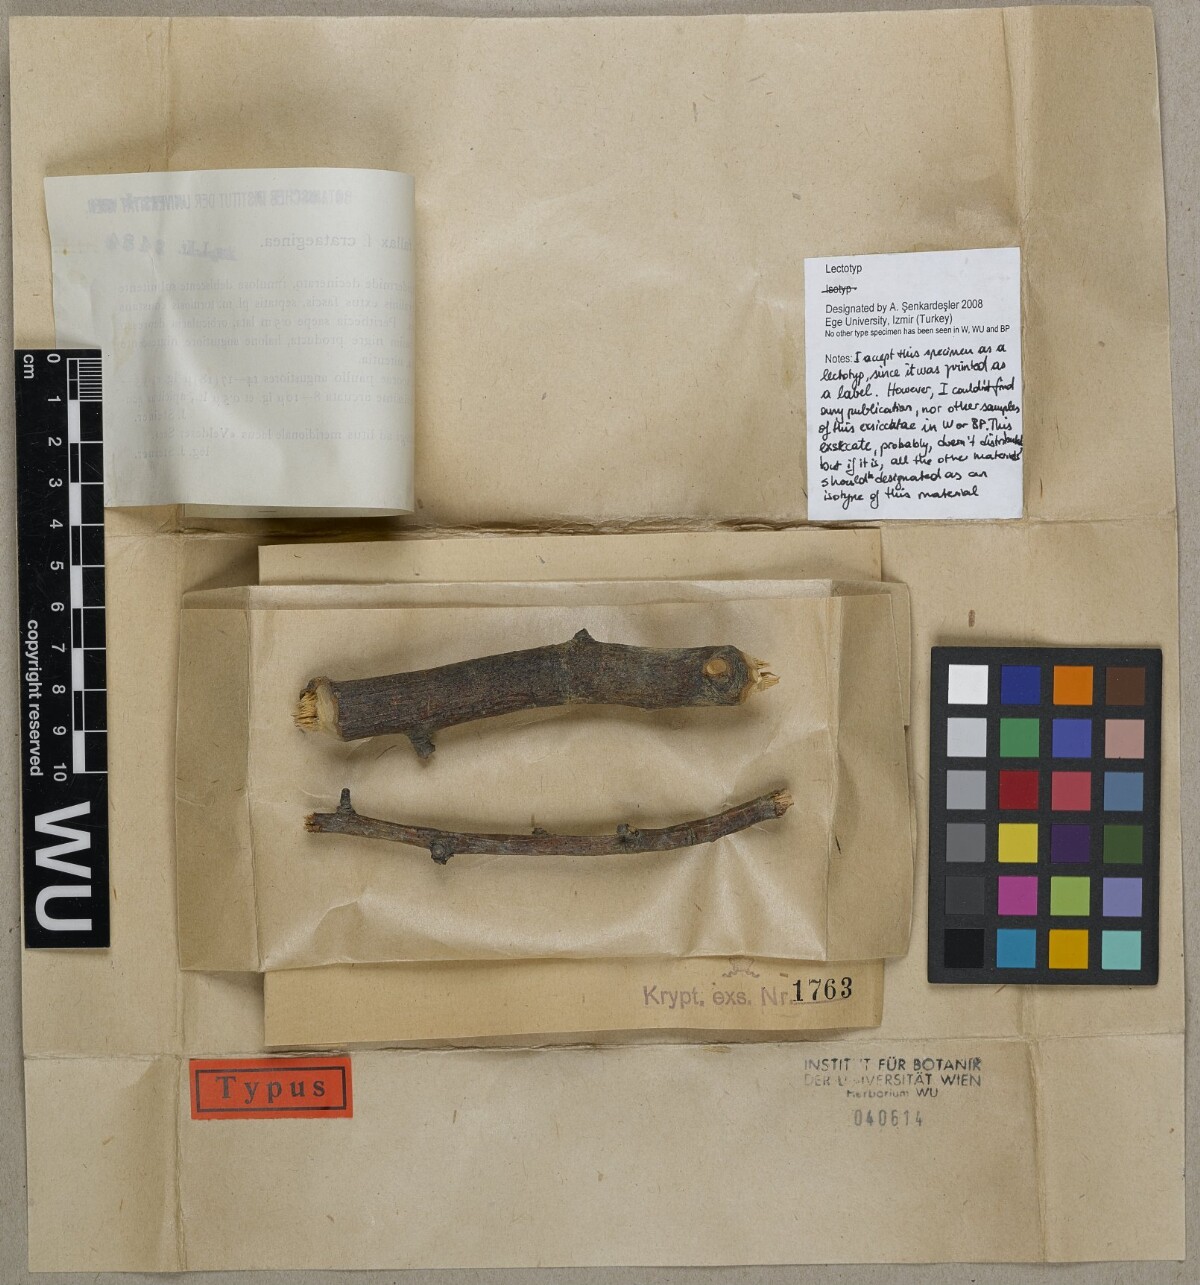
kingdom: Fungi
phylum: Ascomycota
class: Lecanoromycetes
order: Ostropales
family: Porinaceae
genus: Pseudosagedia
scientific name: Pseudosagedia fallax
